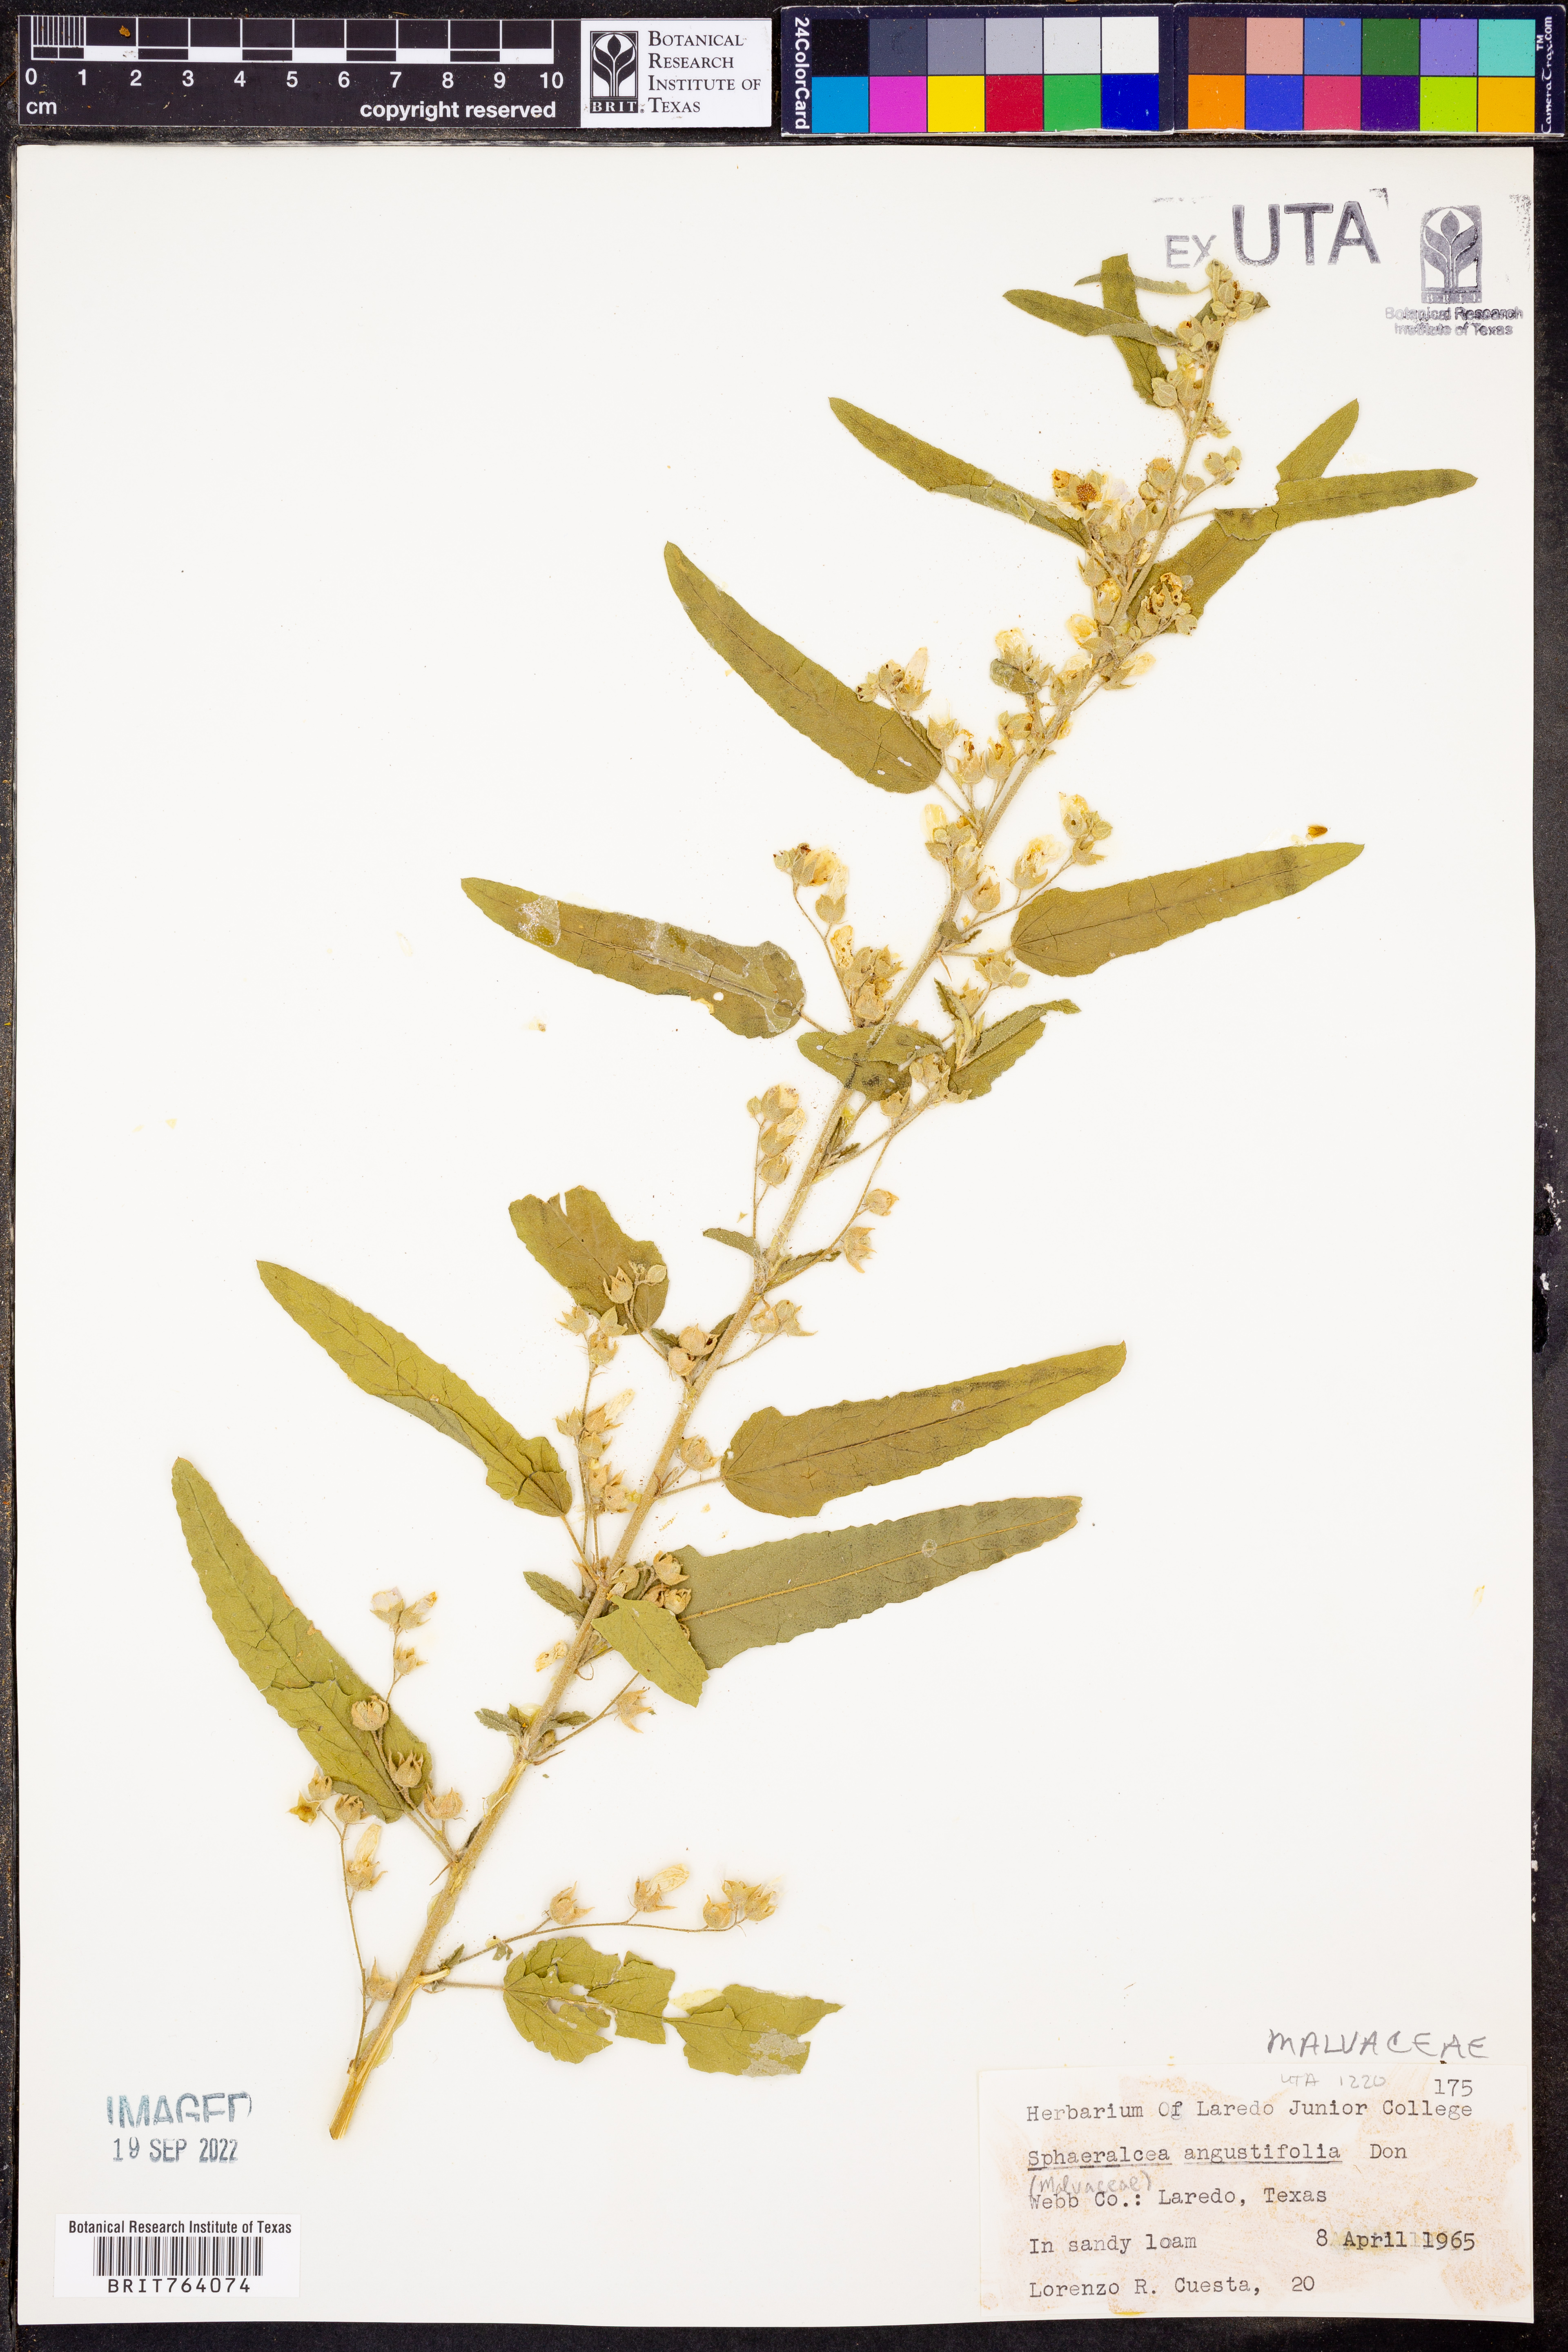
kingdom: Plantae
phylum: Tracheophyta
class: Magnoliopsida
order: Malvales
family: Malvaceae
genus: Sphaeralcea
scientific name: Sphaeralcea angustifolia
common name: Copper globe-mallow
